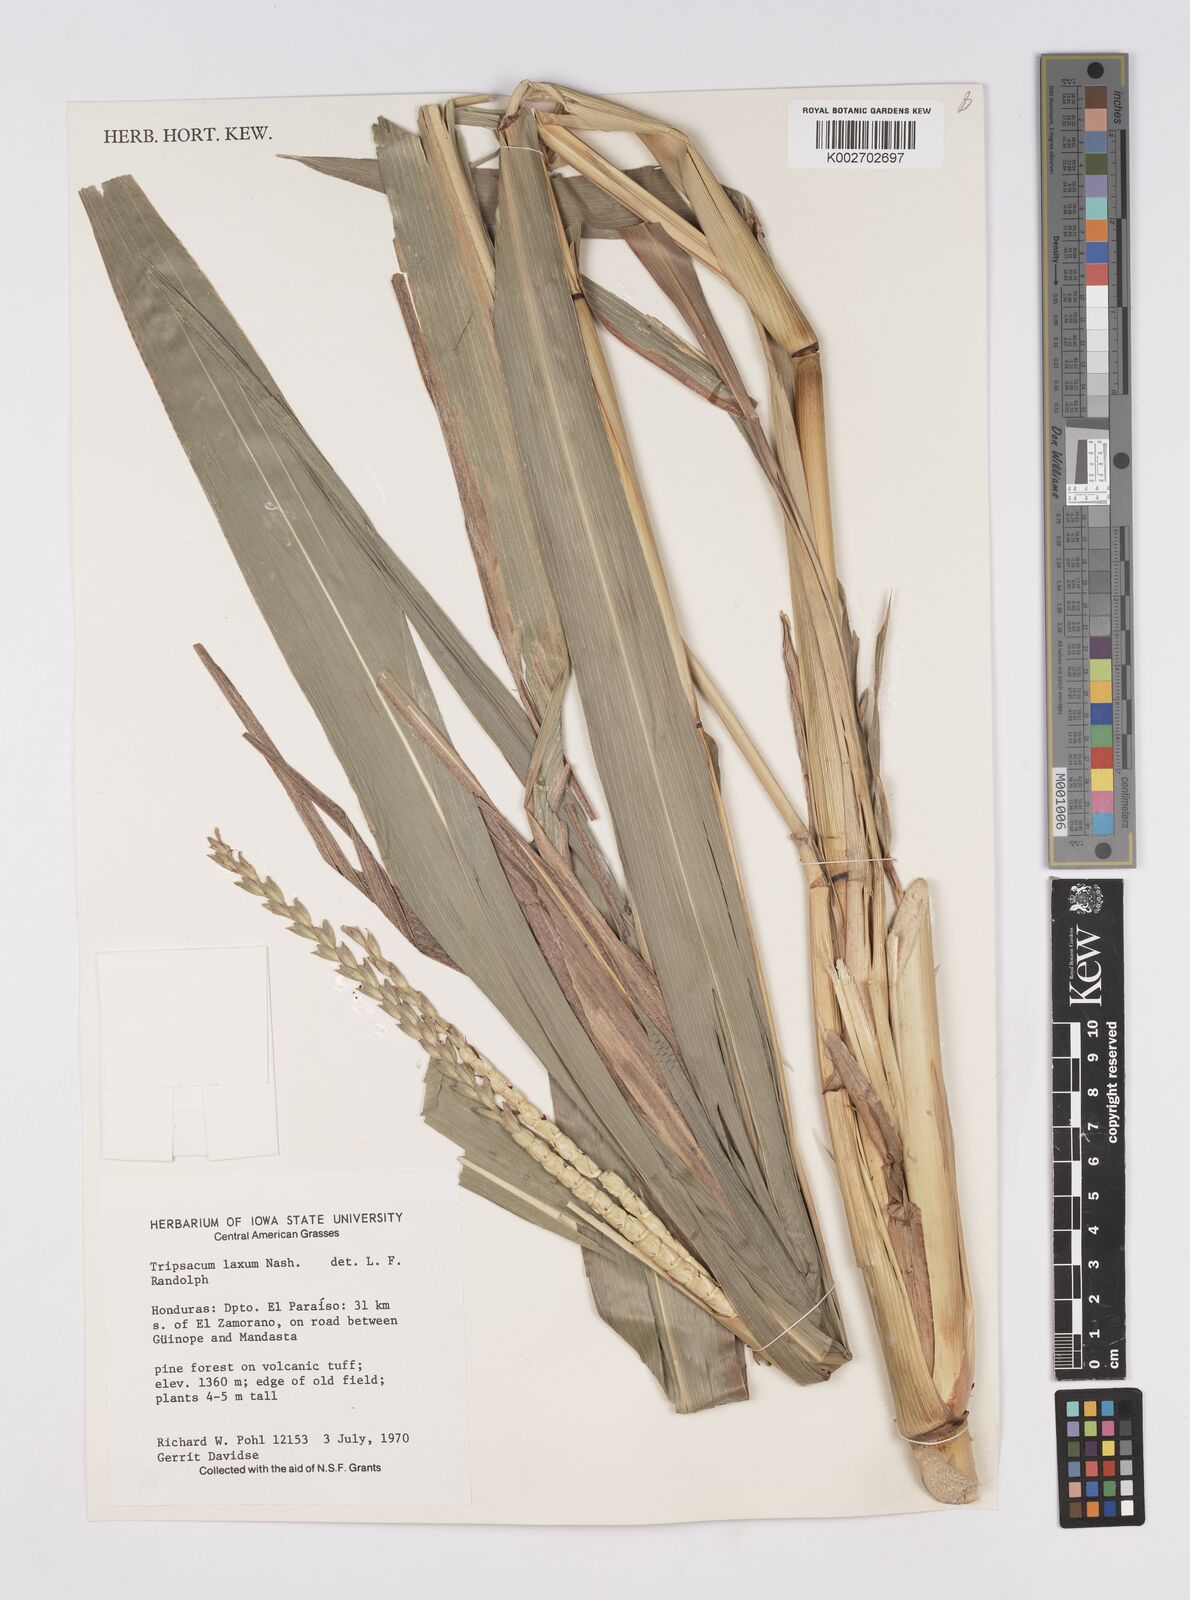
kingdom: Plantae
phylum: Tracheophyta
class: Liliopsida
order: Poales
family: Poaceae
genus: Tripsacum
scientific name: Tripsacum andersonii
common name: Guatemalan grass
